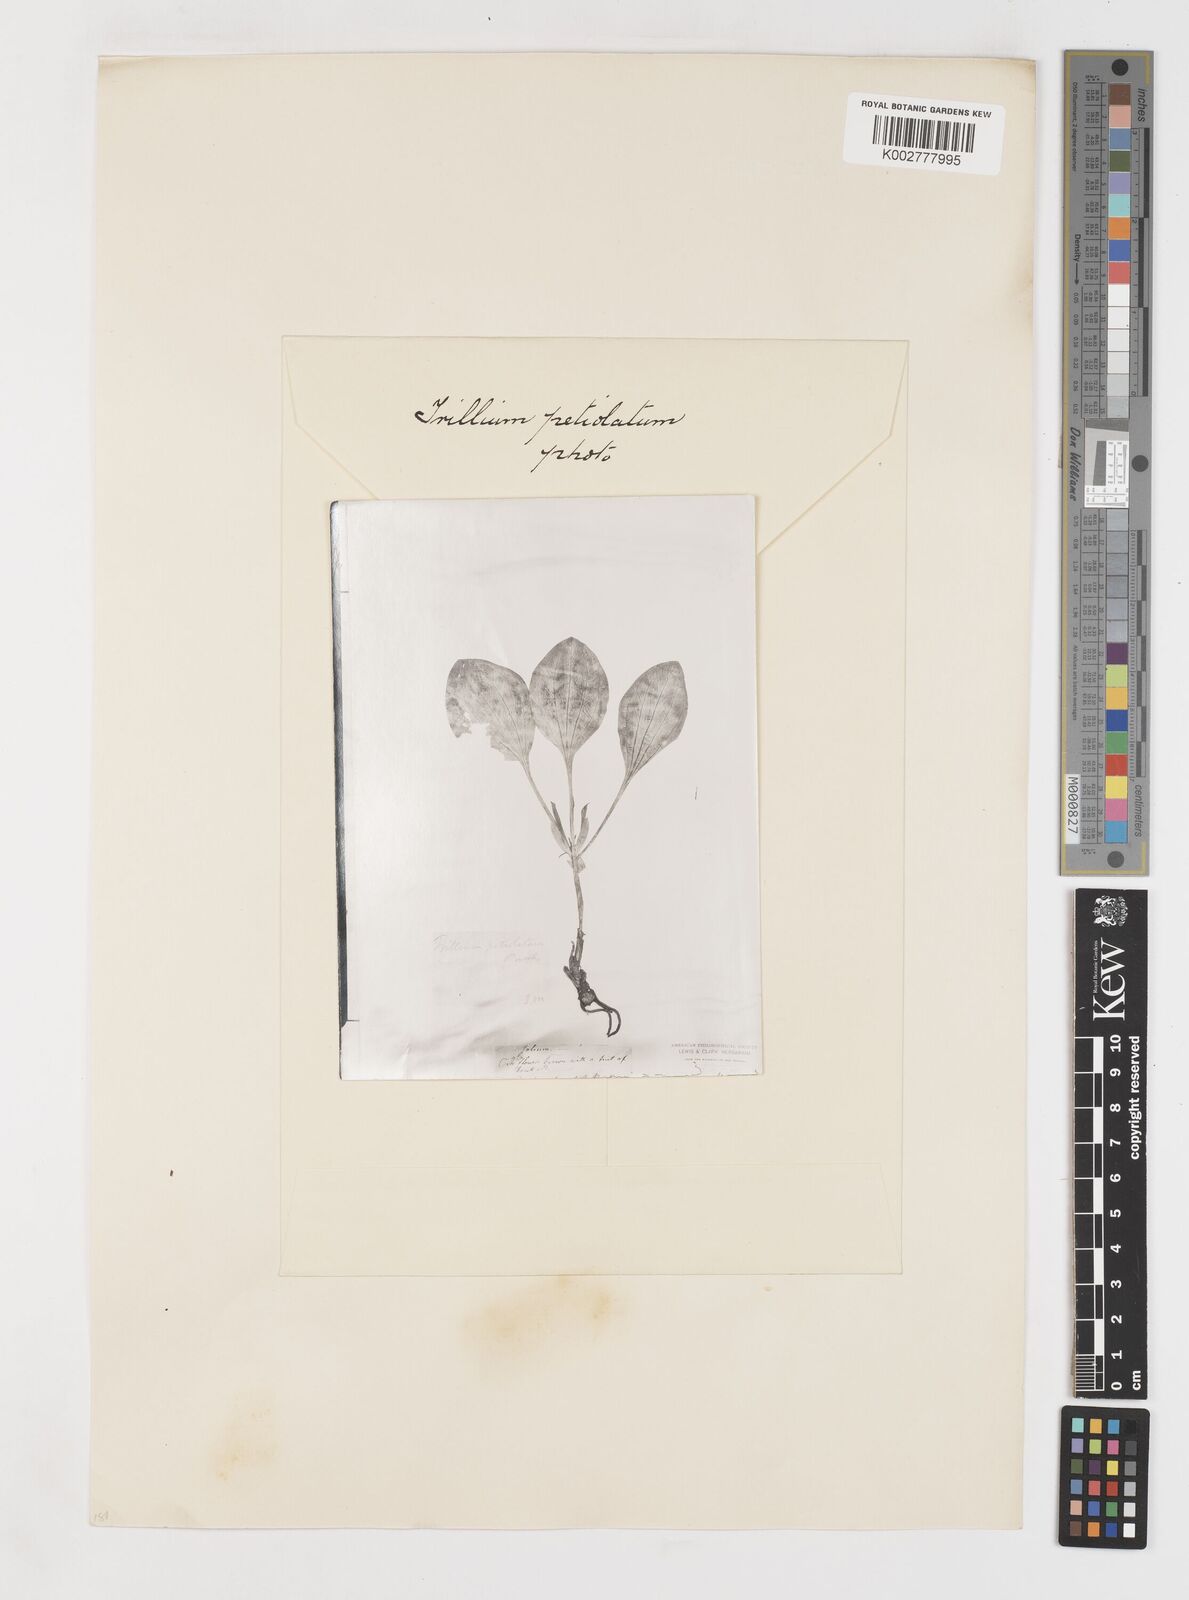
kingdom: Plantae
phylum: Tracheophyta
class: Liliopsida
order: Liliales
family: Melanthiaceae
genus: Trillium
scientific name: Trillium petiolatum
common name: Idaho trillium
